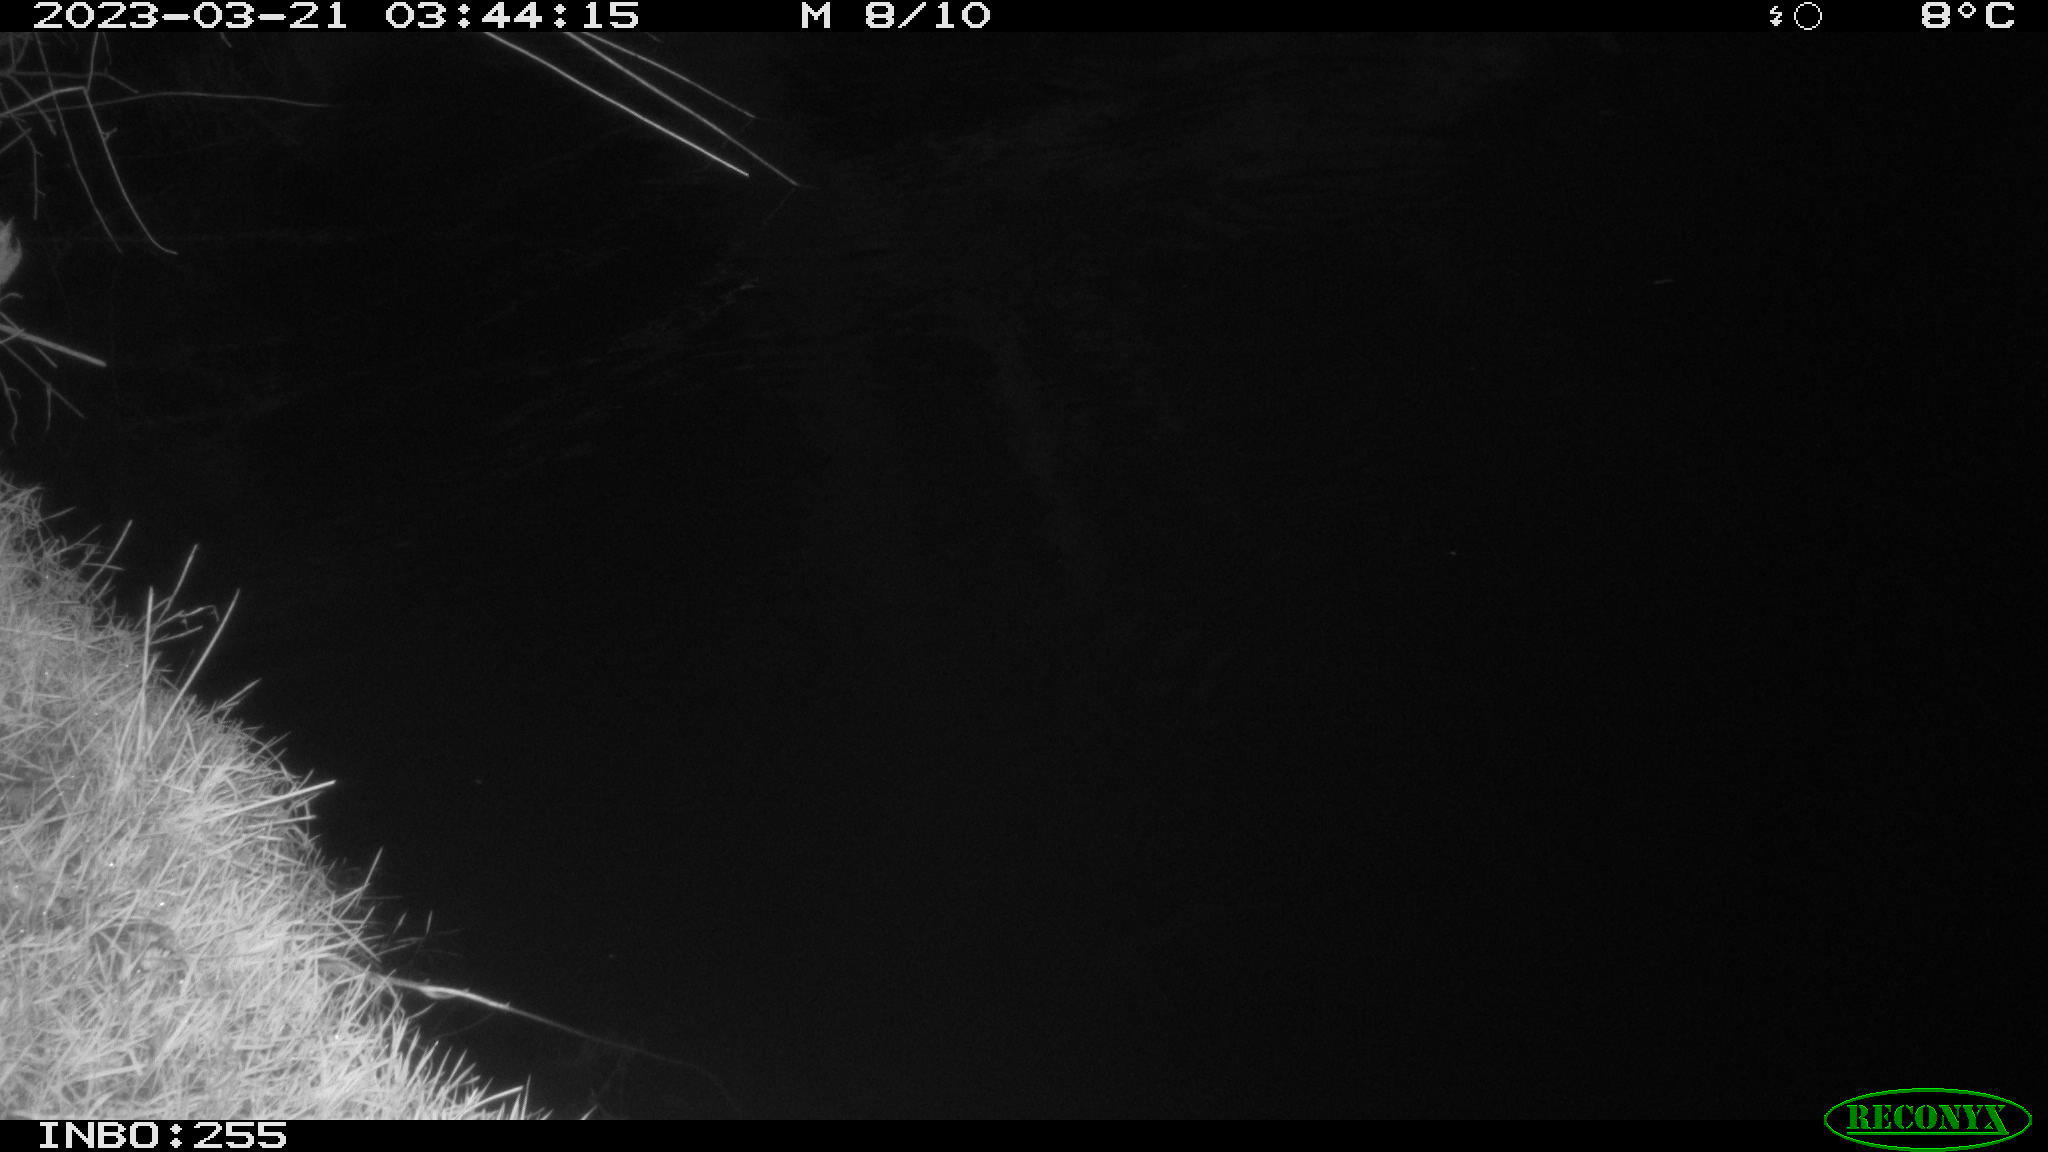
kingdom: Animalia
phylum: Chordata
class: Mammalia
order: Rodentia
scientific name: Rodentia
